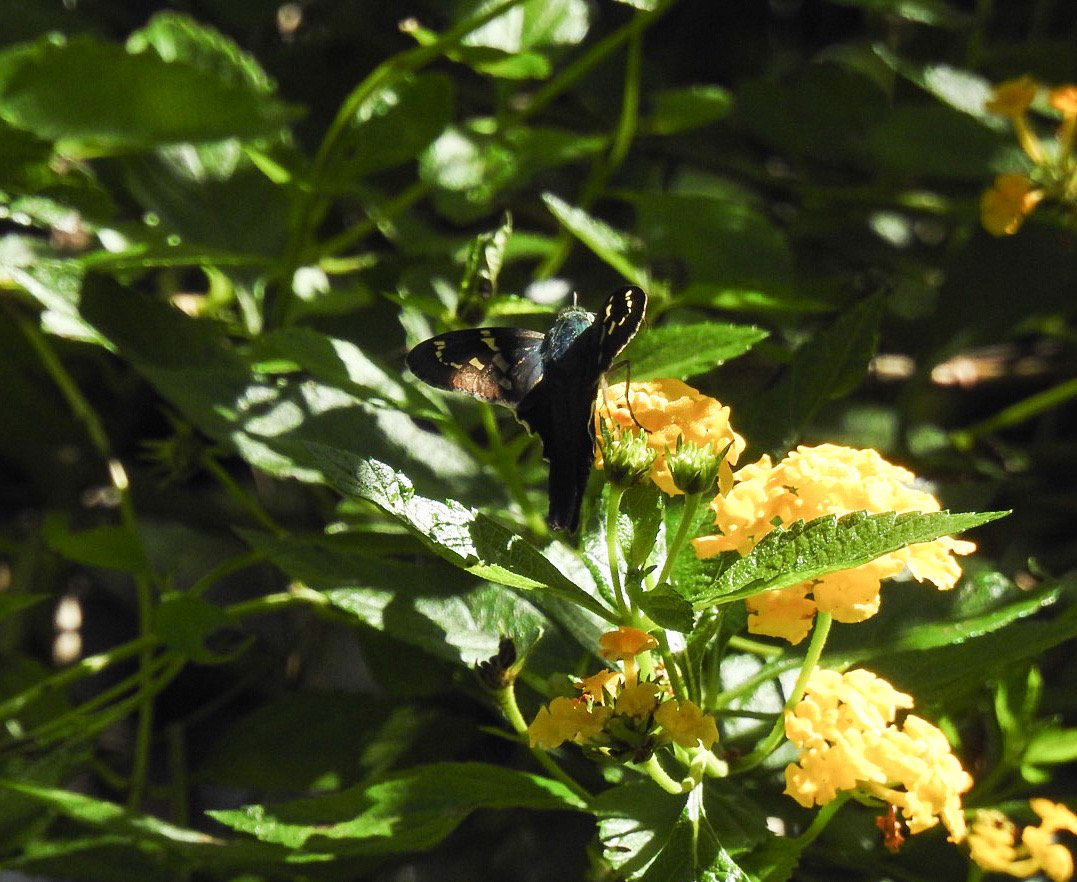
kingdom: Animalia
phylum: Arthropoda
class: Insecta
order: Lepidoptera
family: Hesperiidae
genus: Urbanus
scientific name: Urbanus proteus
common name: Long-tailed Skipper
